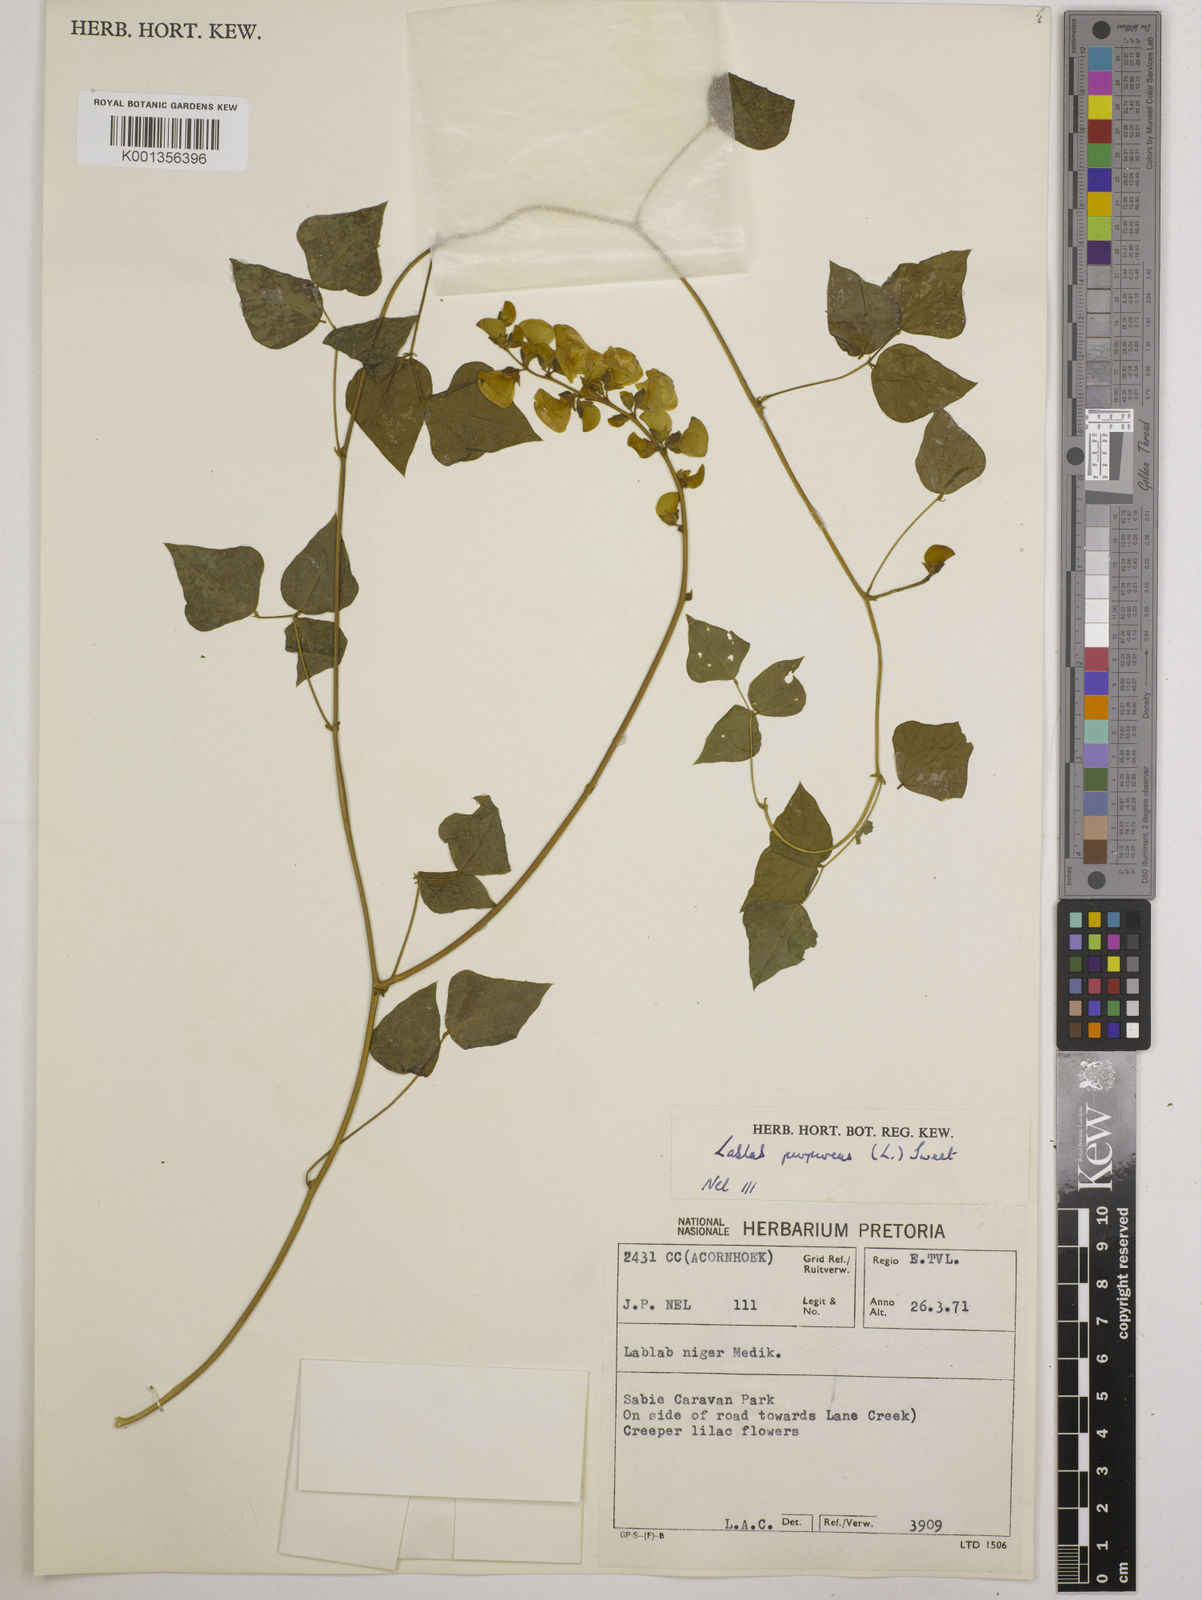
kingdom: Plantae
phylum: Tracheophyta
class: Magnoliopsida
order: Fabales
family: Fabaceae
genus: Lablab
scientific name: Lablab purpureus
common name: Lablab-bean
